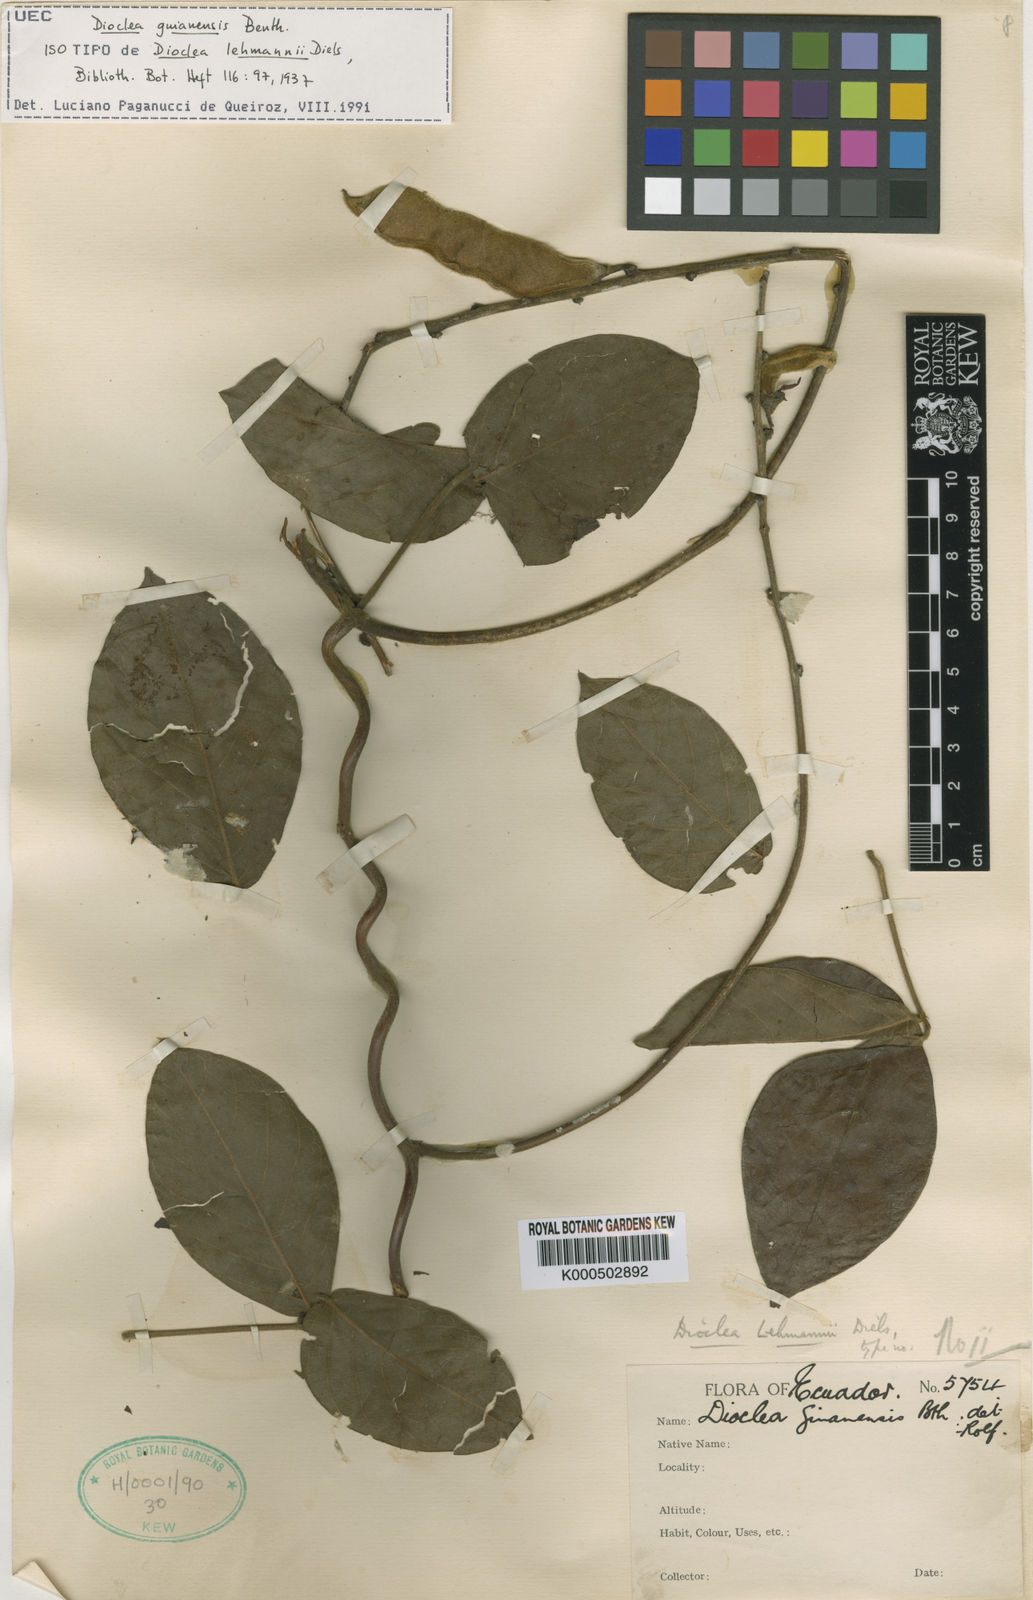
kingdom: Plantae
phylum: Tracheophyta
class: Magnoliopsida
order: Fabales
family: Fabaceae
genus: Dioclea
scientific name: Dioclea guianensis
